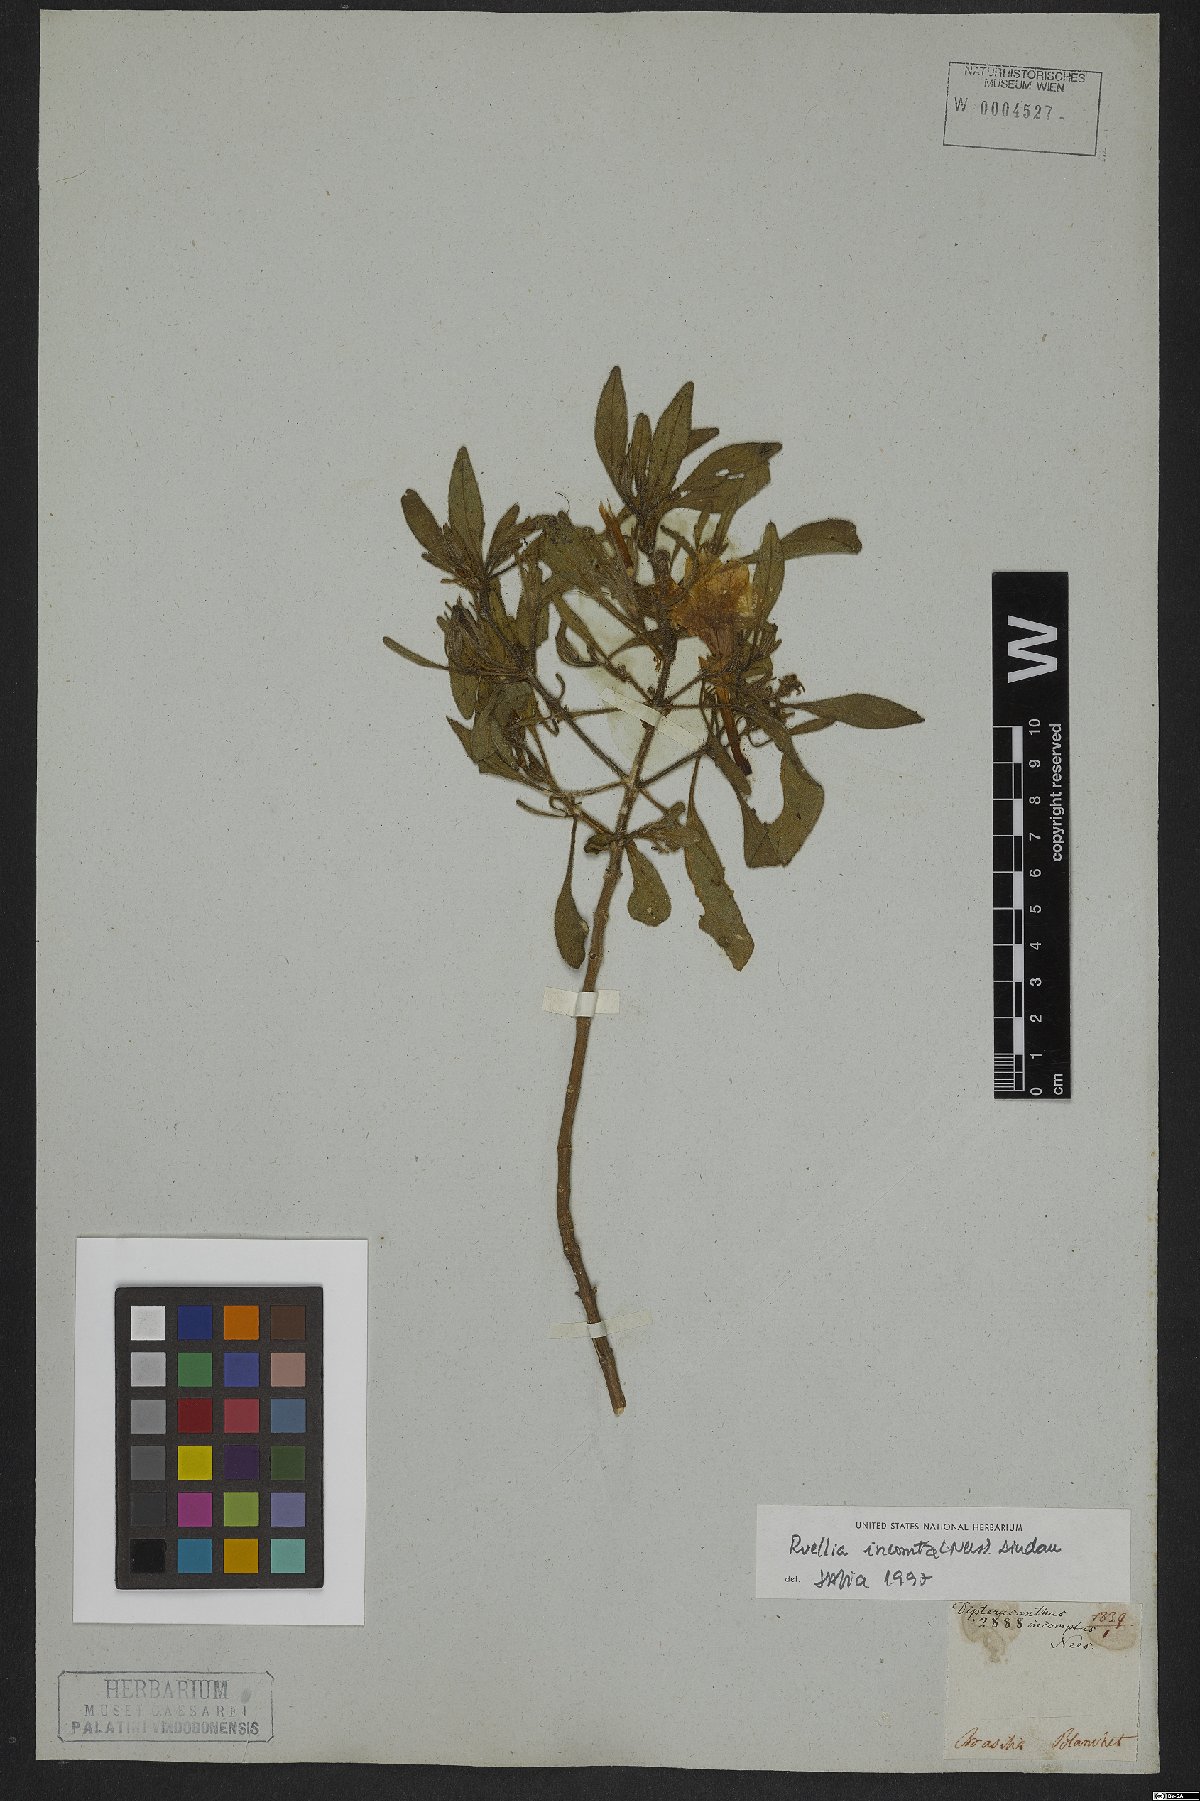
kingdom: Plantae
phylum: Tracheophyta
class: Magnoliopsida
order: Lamiales
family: Acanthaceae
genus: Ruellia
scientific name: Ruellia incomta
